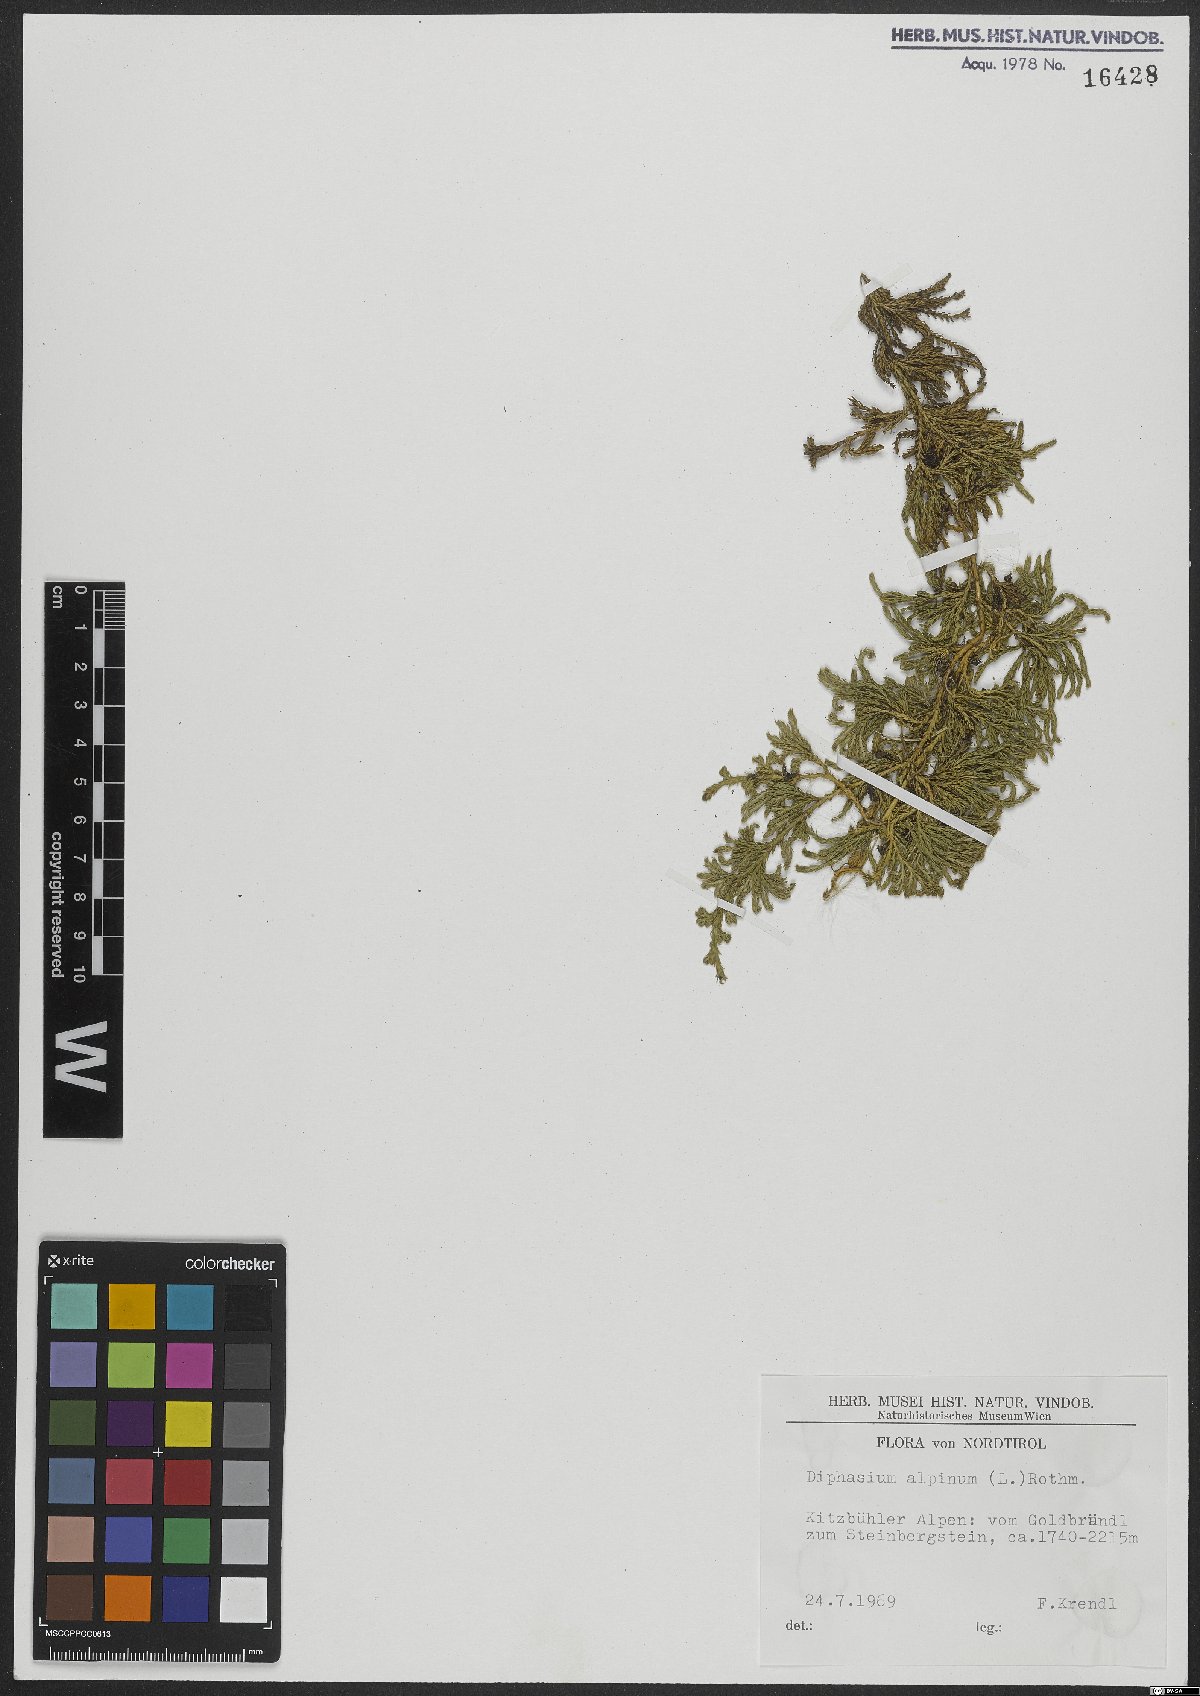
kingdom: Plantae
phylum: Tracheophyta
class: Lycopodiopsida
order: Lycopodiales
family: Lycopodiaceae
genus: Diphasiastrum
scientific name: Diphasiastrum alpinum
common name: Alpine clubmoss
